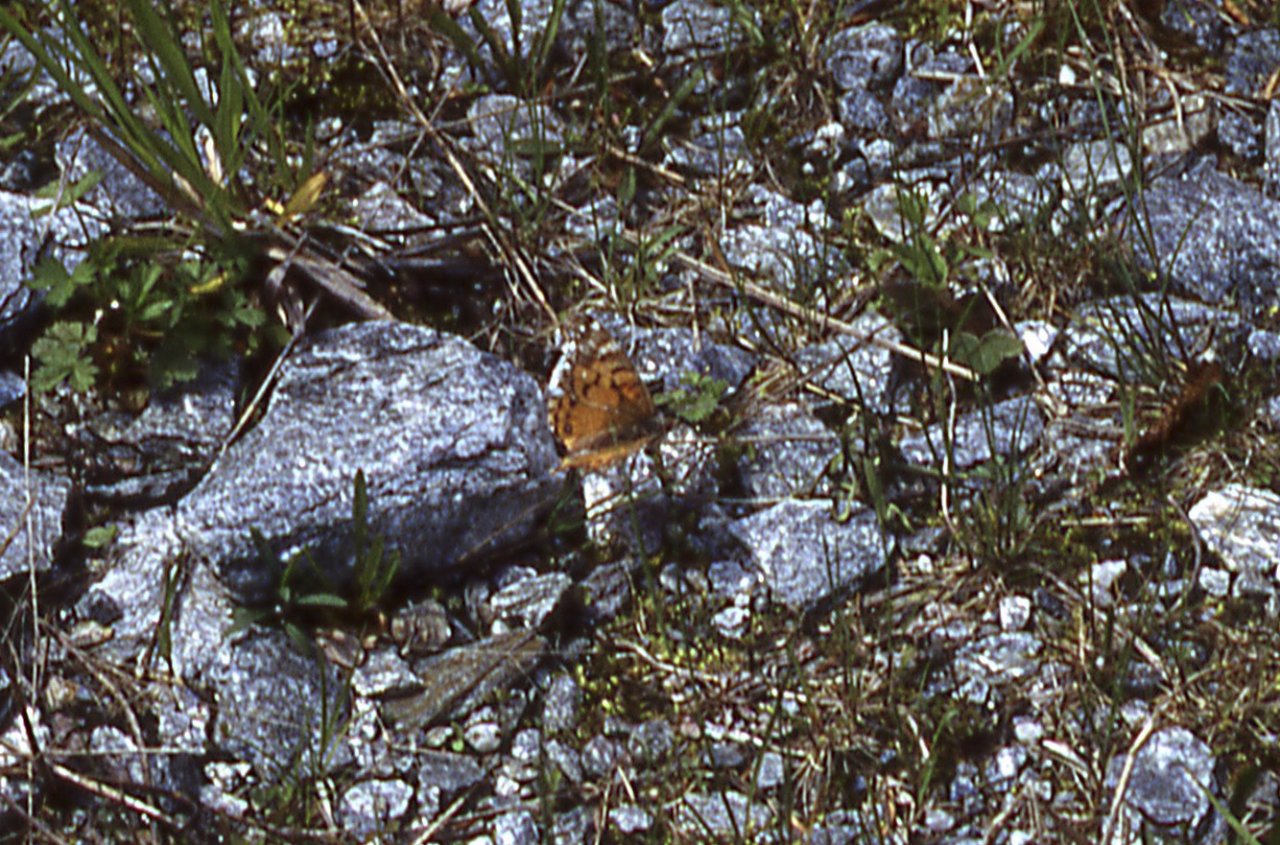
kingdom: Animalia
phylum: Arthropoda
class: Insecta
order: Lepidoptera
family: Nymphalidae
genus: Vanessa
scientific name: Vanessa virginiensis
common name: American Lady
